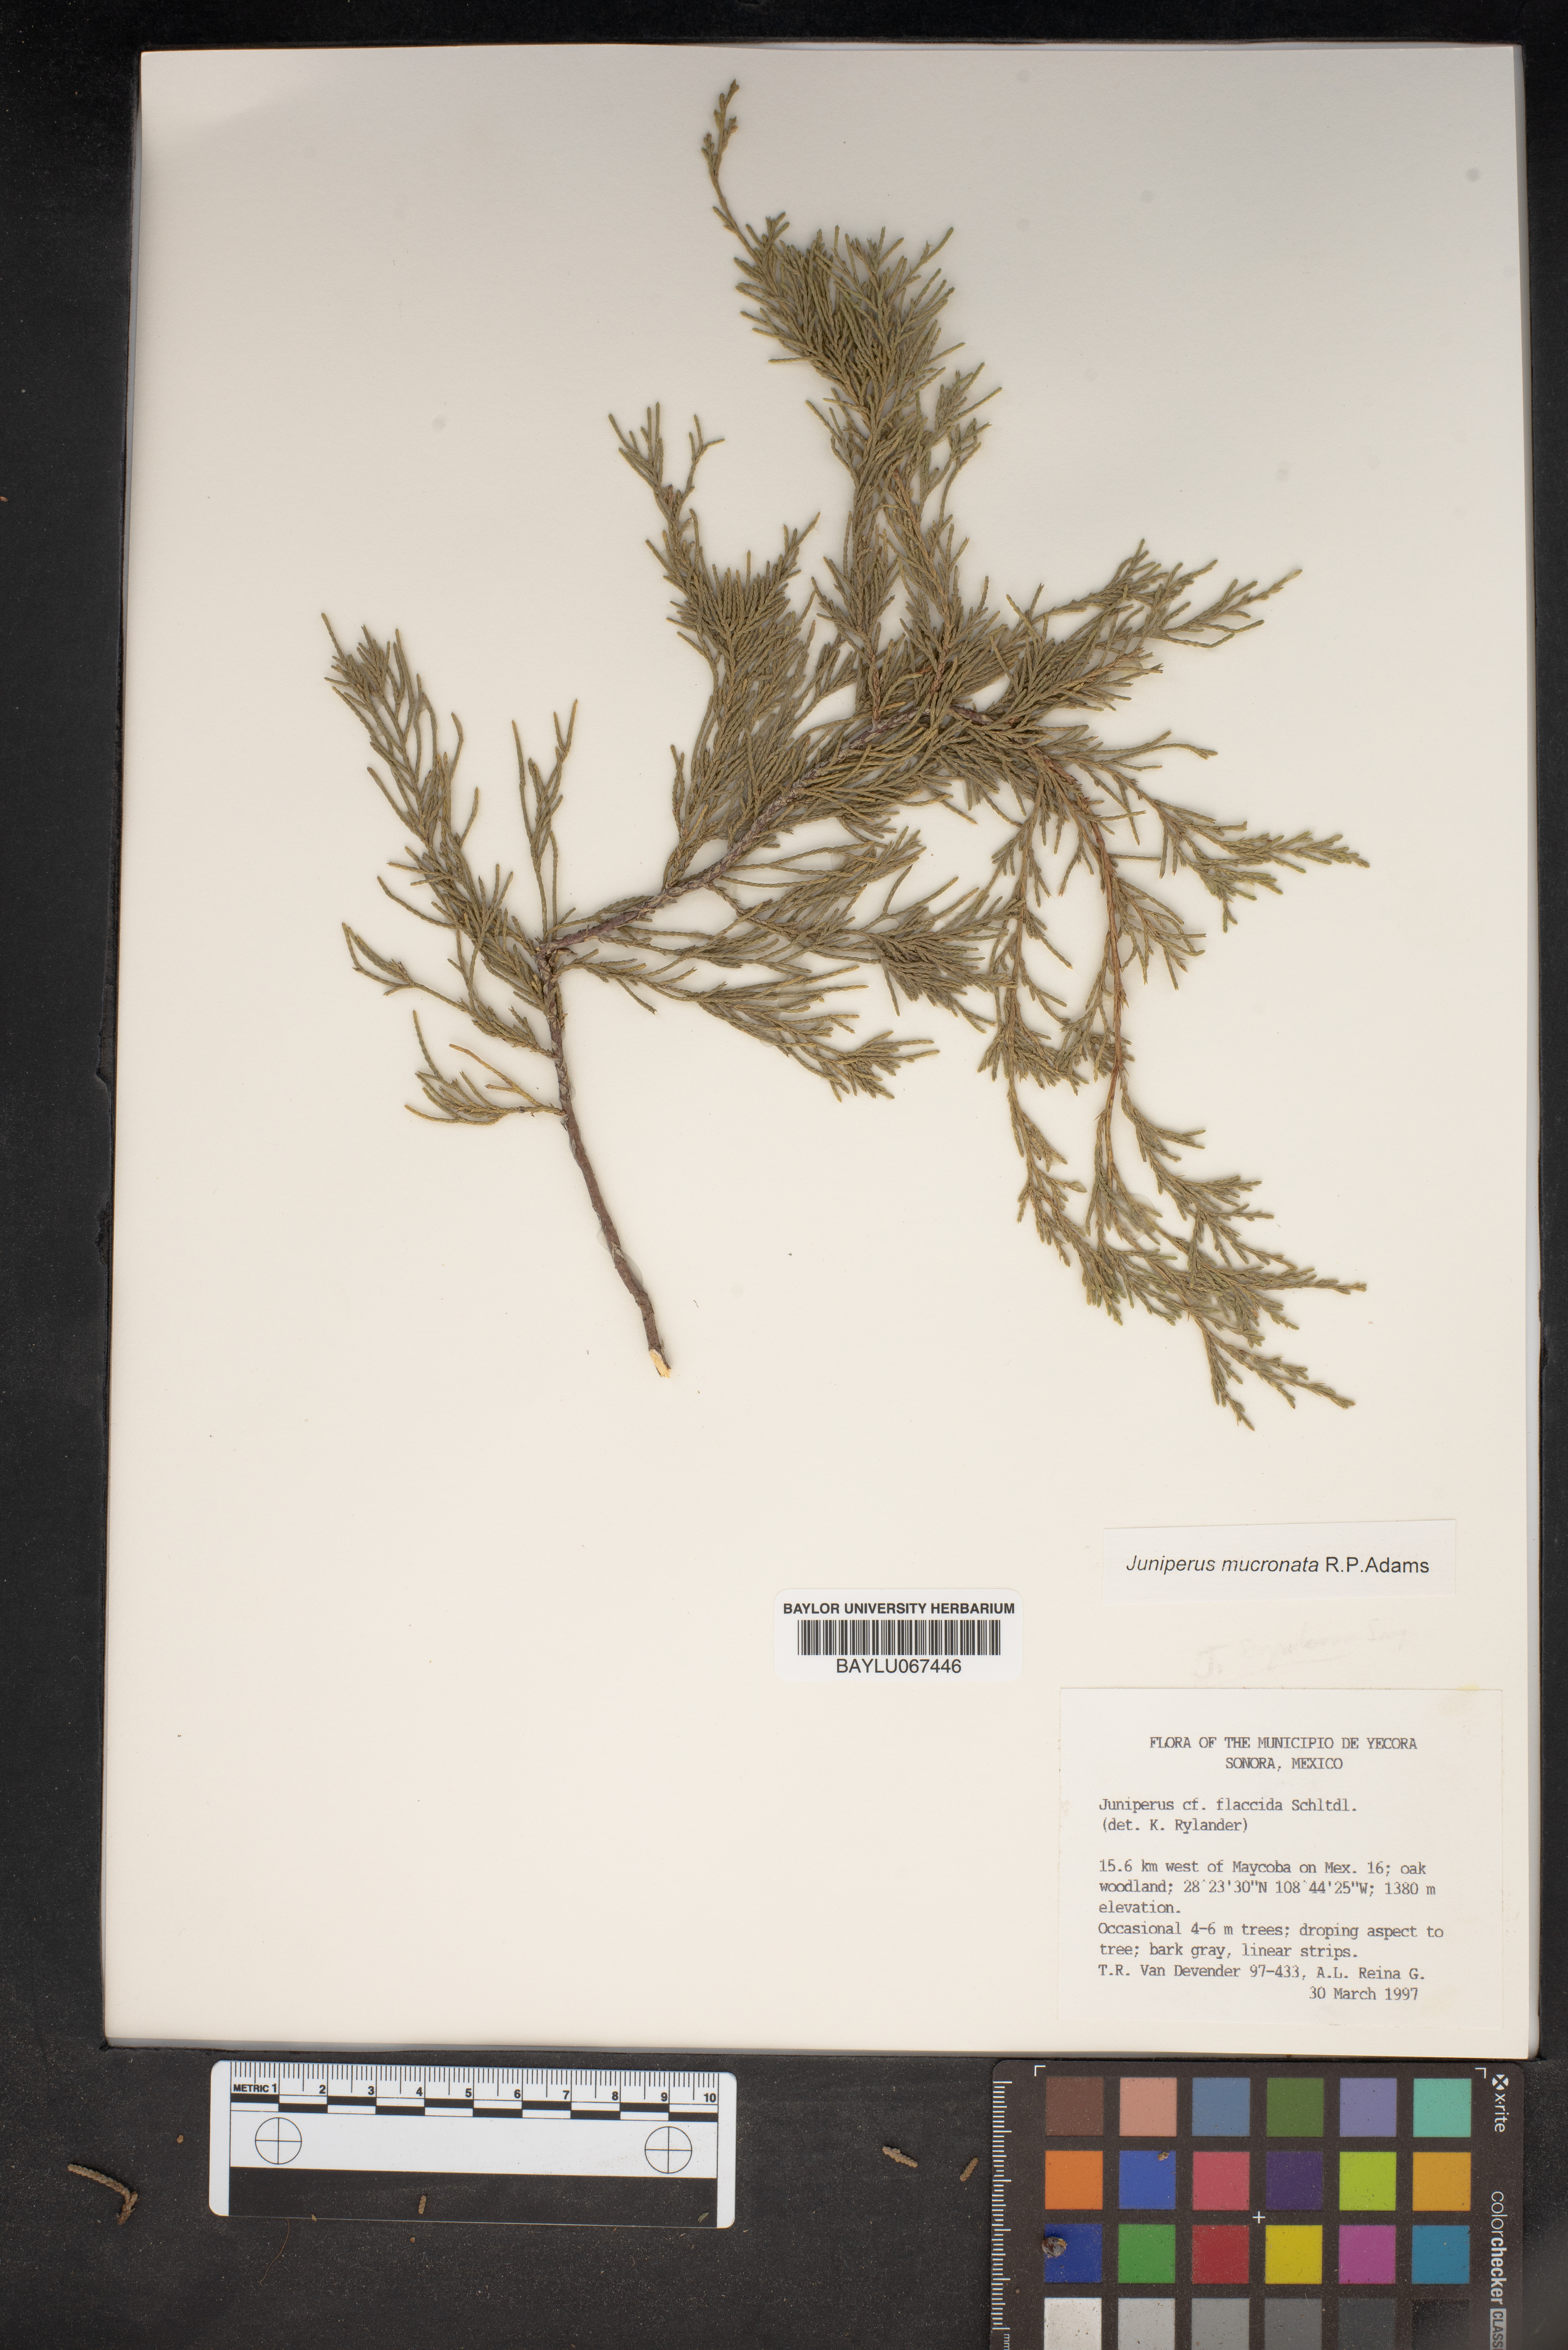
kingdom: Plantae
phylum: Tracheophyta
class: Pinopsida
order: Pinales
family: Cupressaceae
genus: Juniperus
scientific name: Juniperus flaccida
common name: Drooping juniper
